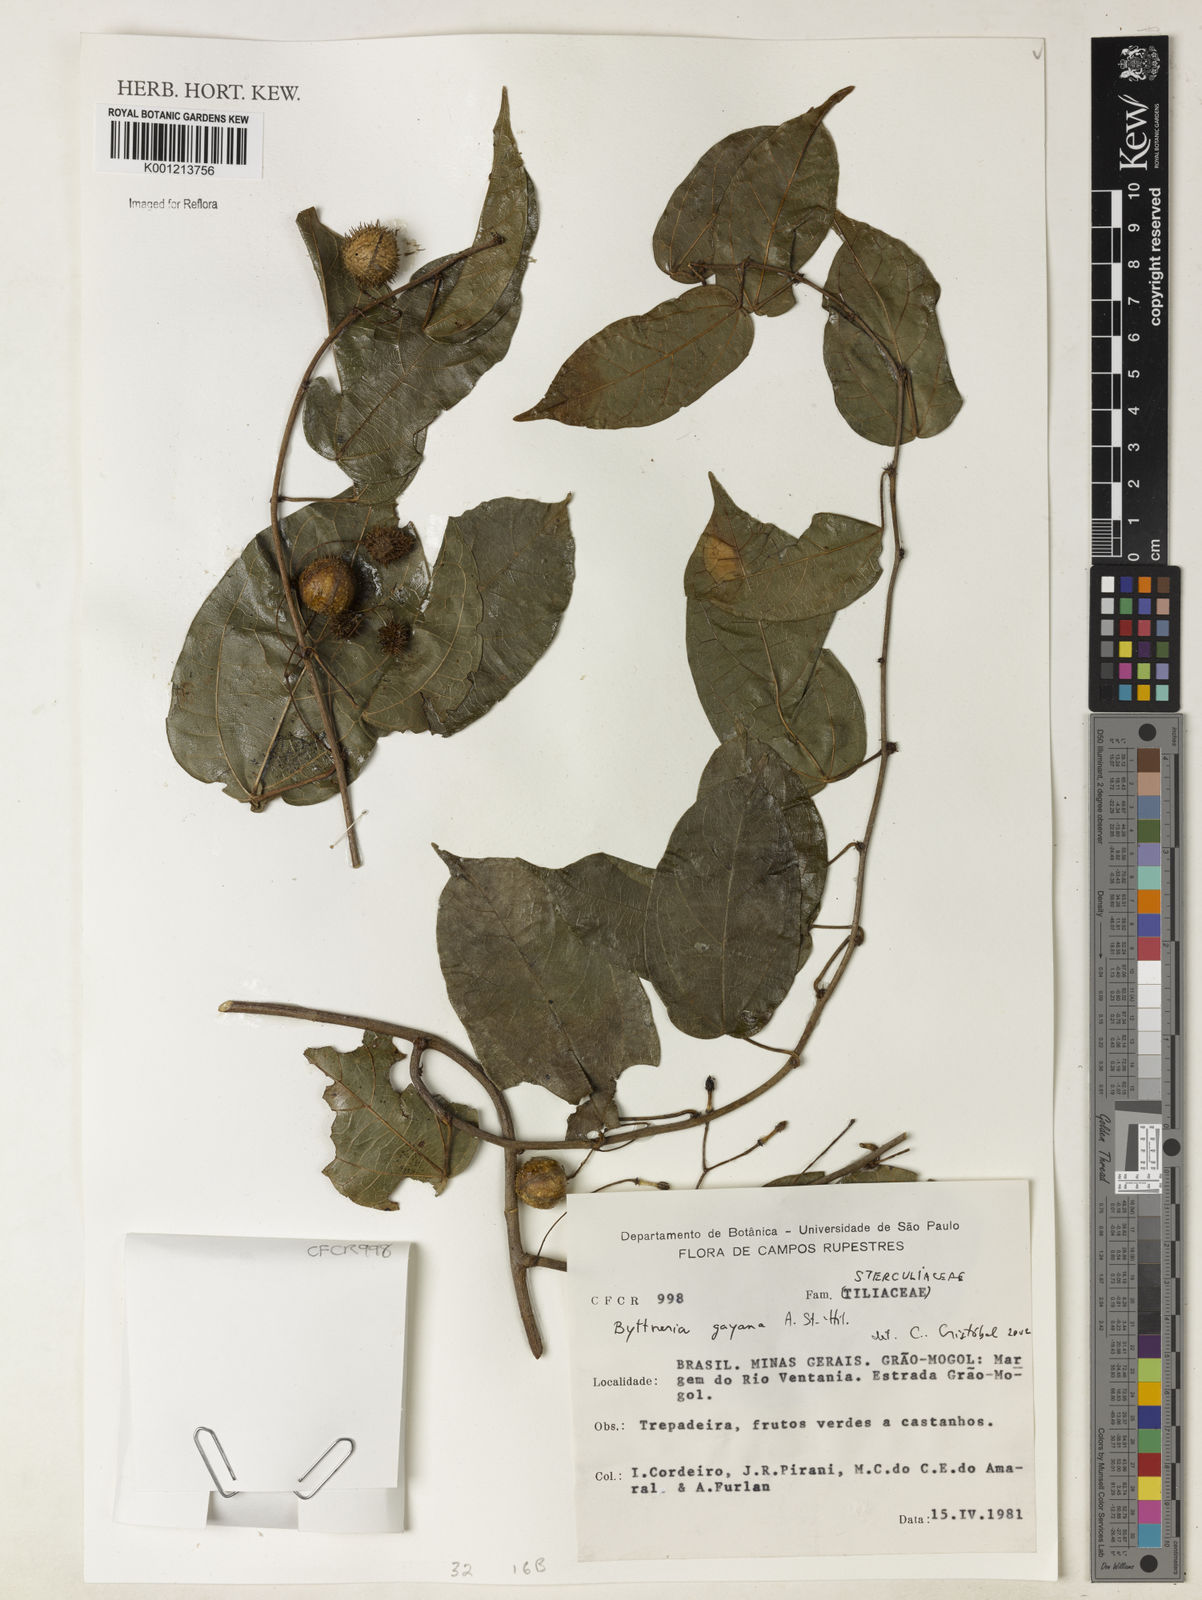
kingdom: Plantae
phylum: Tracheophyta
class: Magnoliopsida
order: Malvales
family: Malvaceae
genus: Byttneria
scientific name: Byttneria gayana
